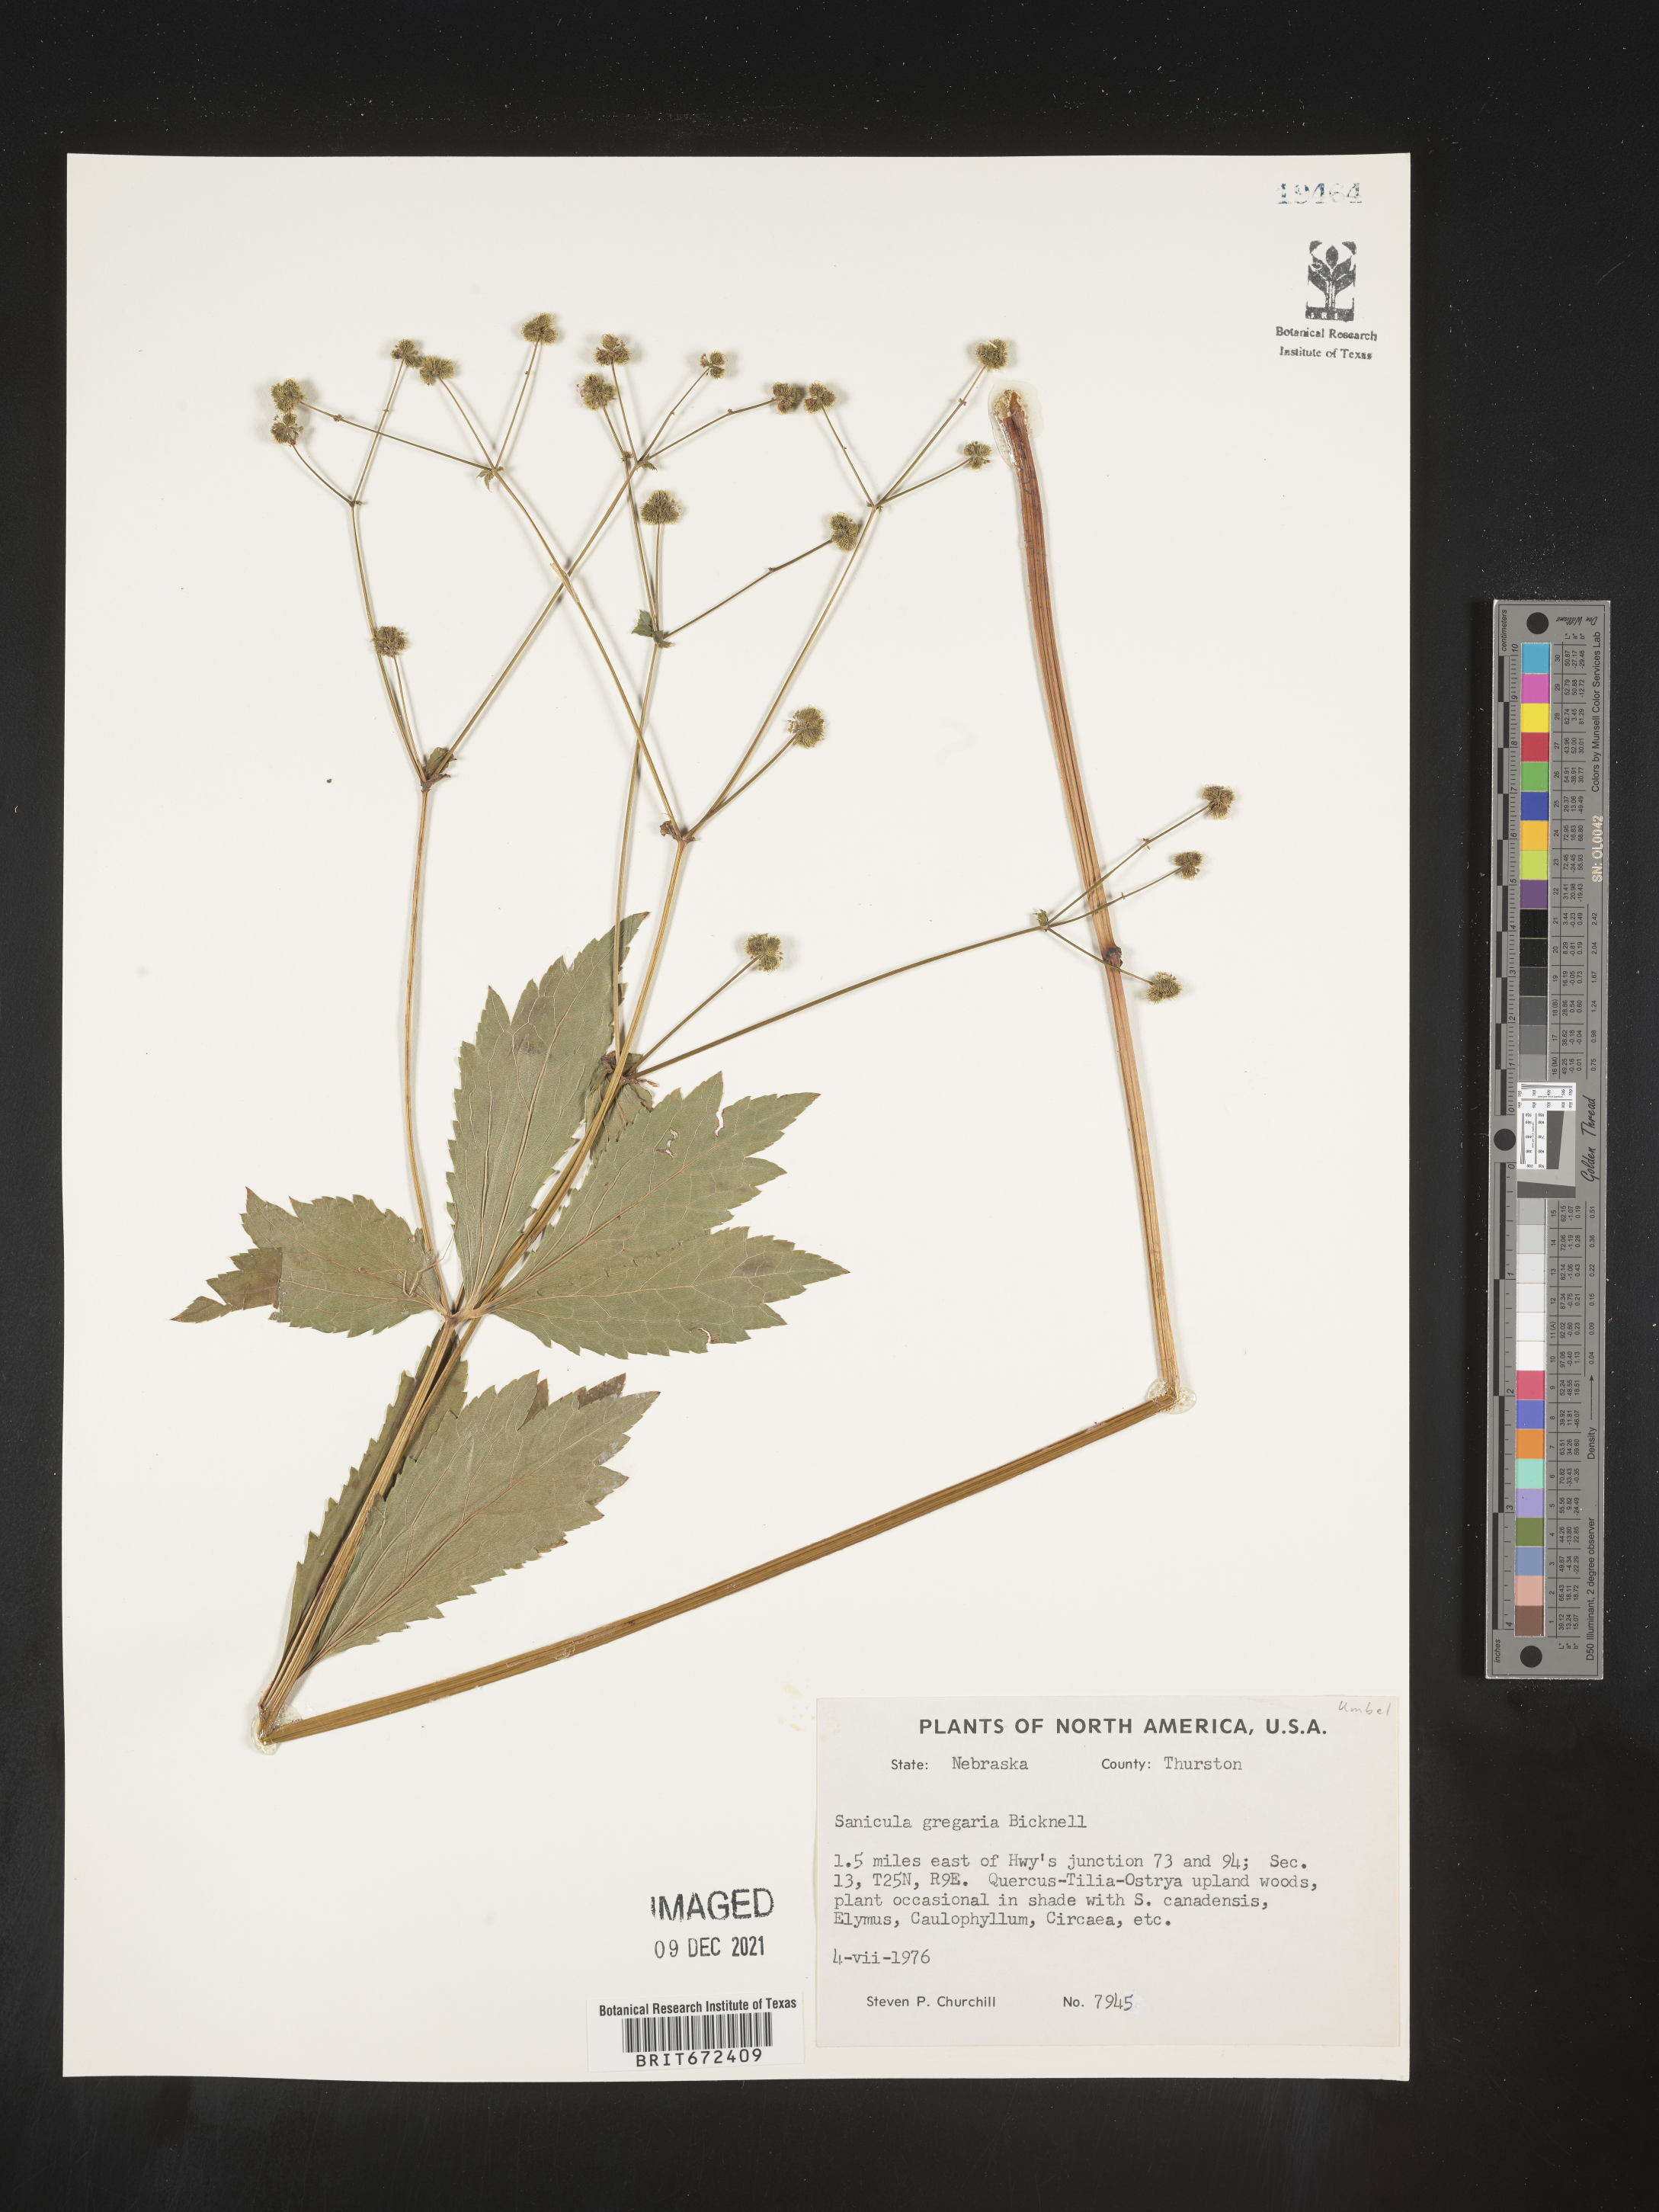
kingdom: Plantae
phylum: Tracheophyta
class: Magnoliopsida
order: Apiales
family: Apiaceae
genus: Sanicula
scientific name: Sanicula odorata
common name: Cluster sanicle
